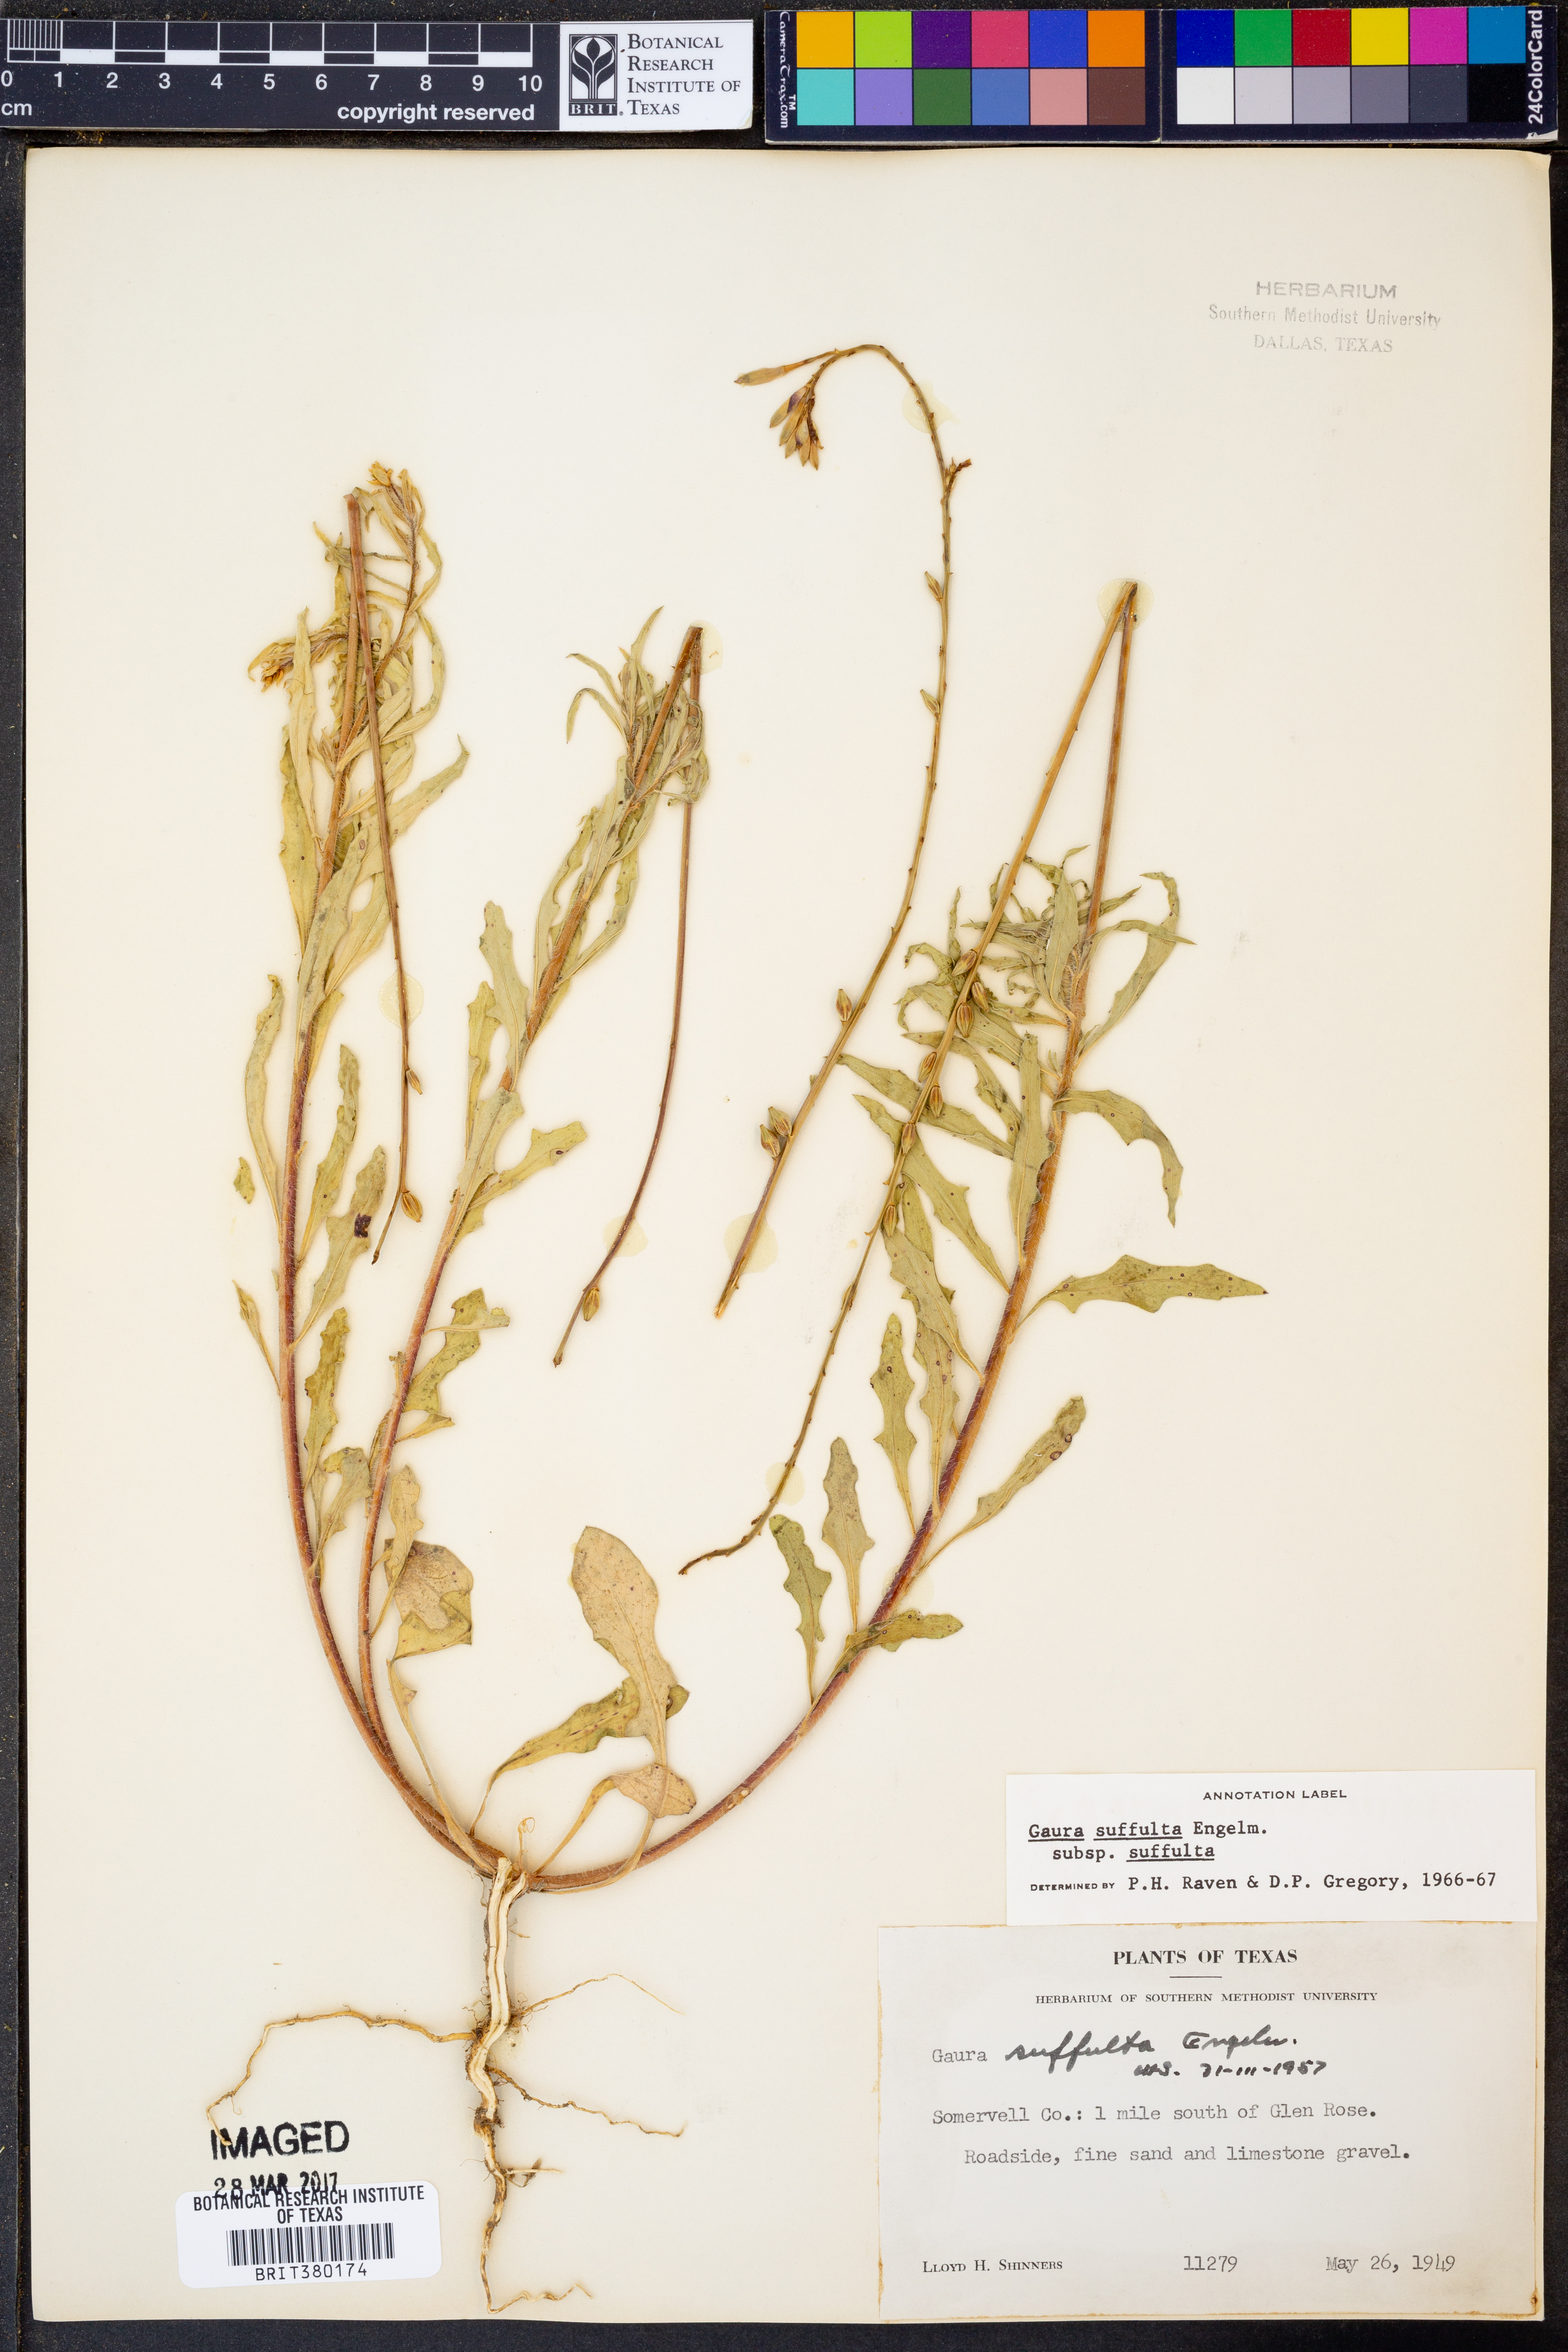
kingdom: Plantae
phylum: Tracheophyta
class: Magnoliopsida
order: Myrtales
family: Onagraceae
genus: Oenothera
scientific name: Oenothera suffulta
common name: Kisses
